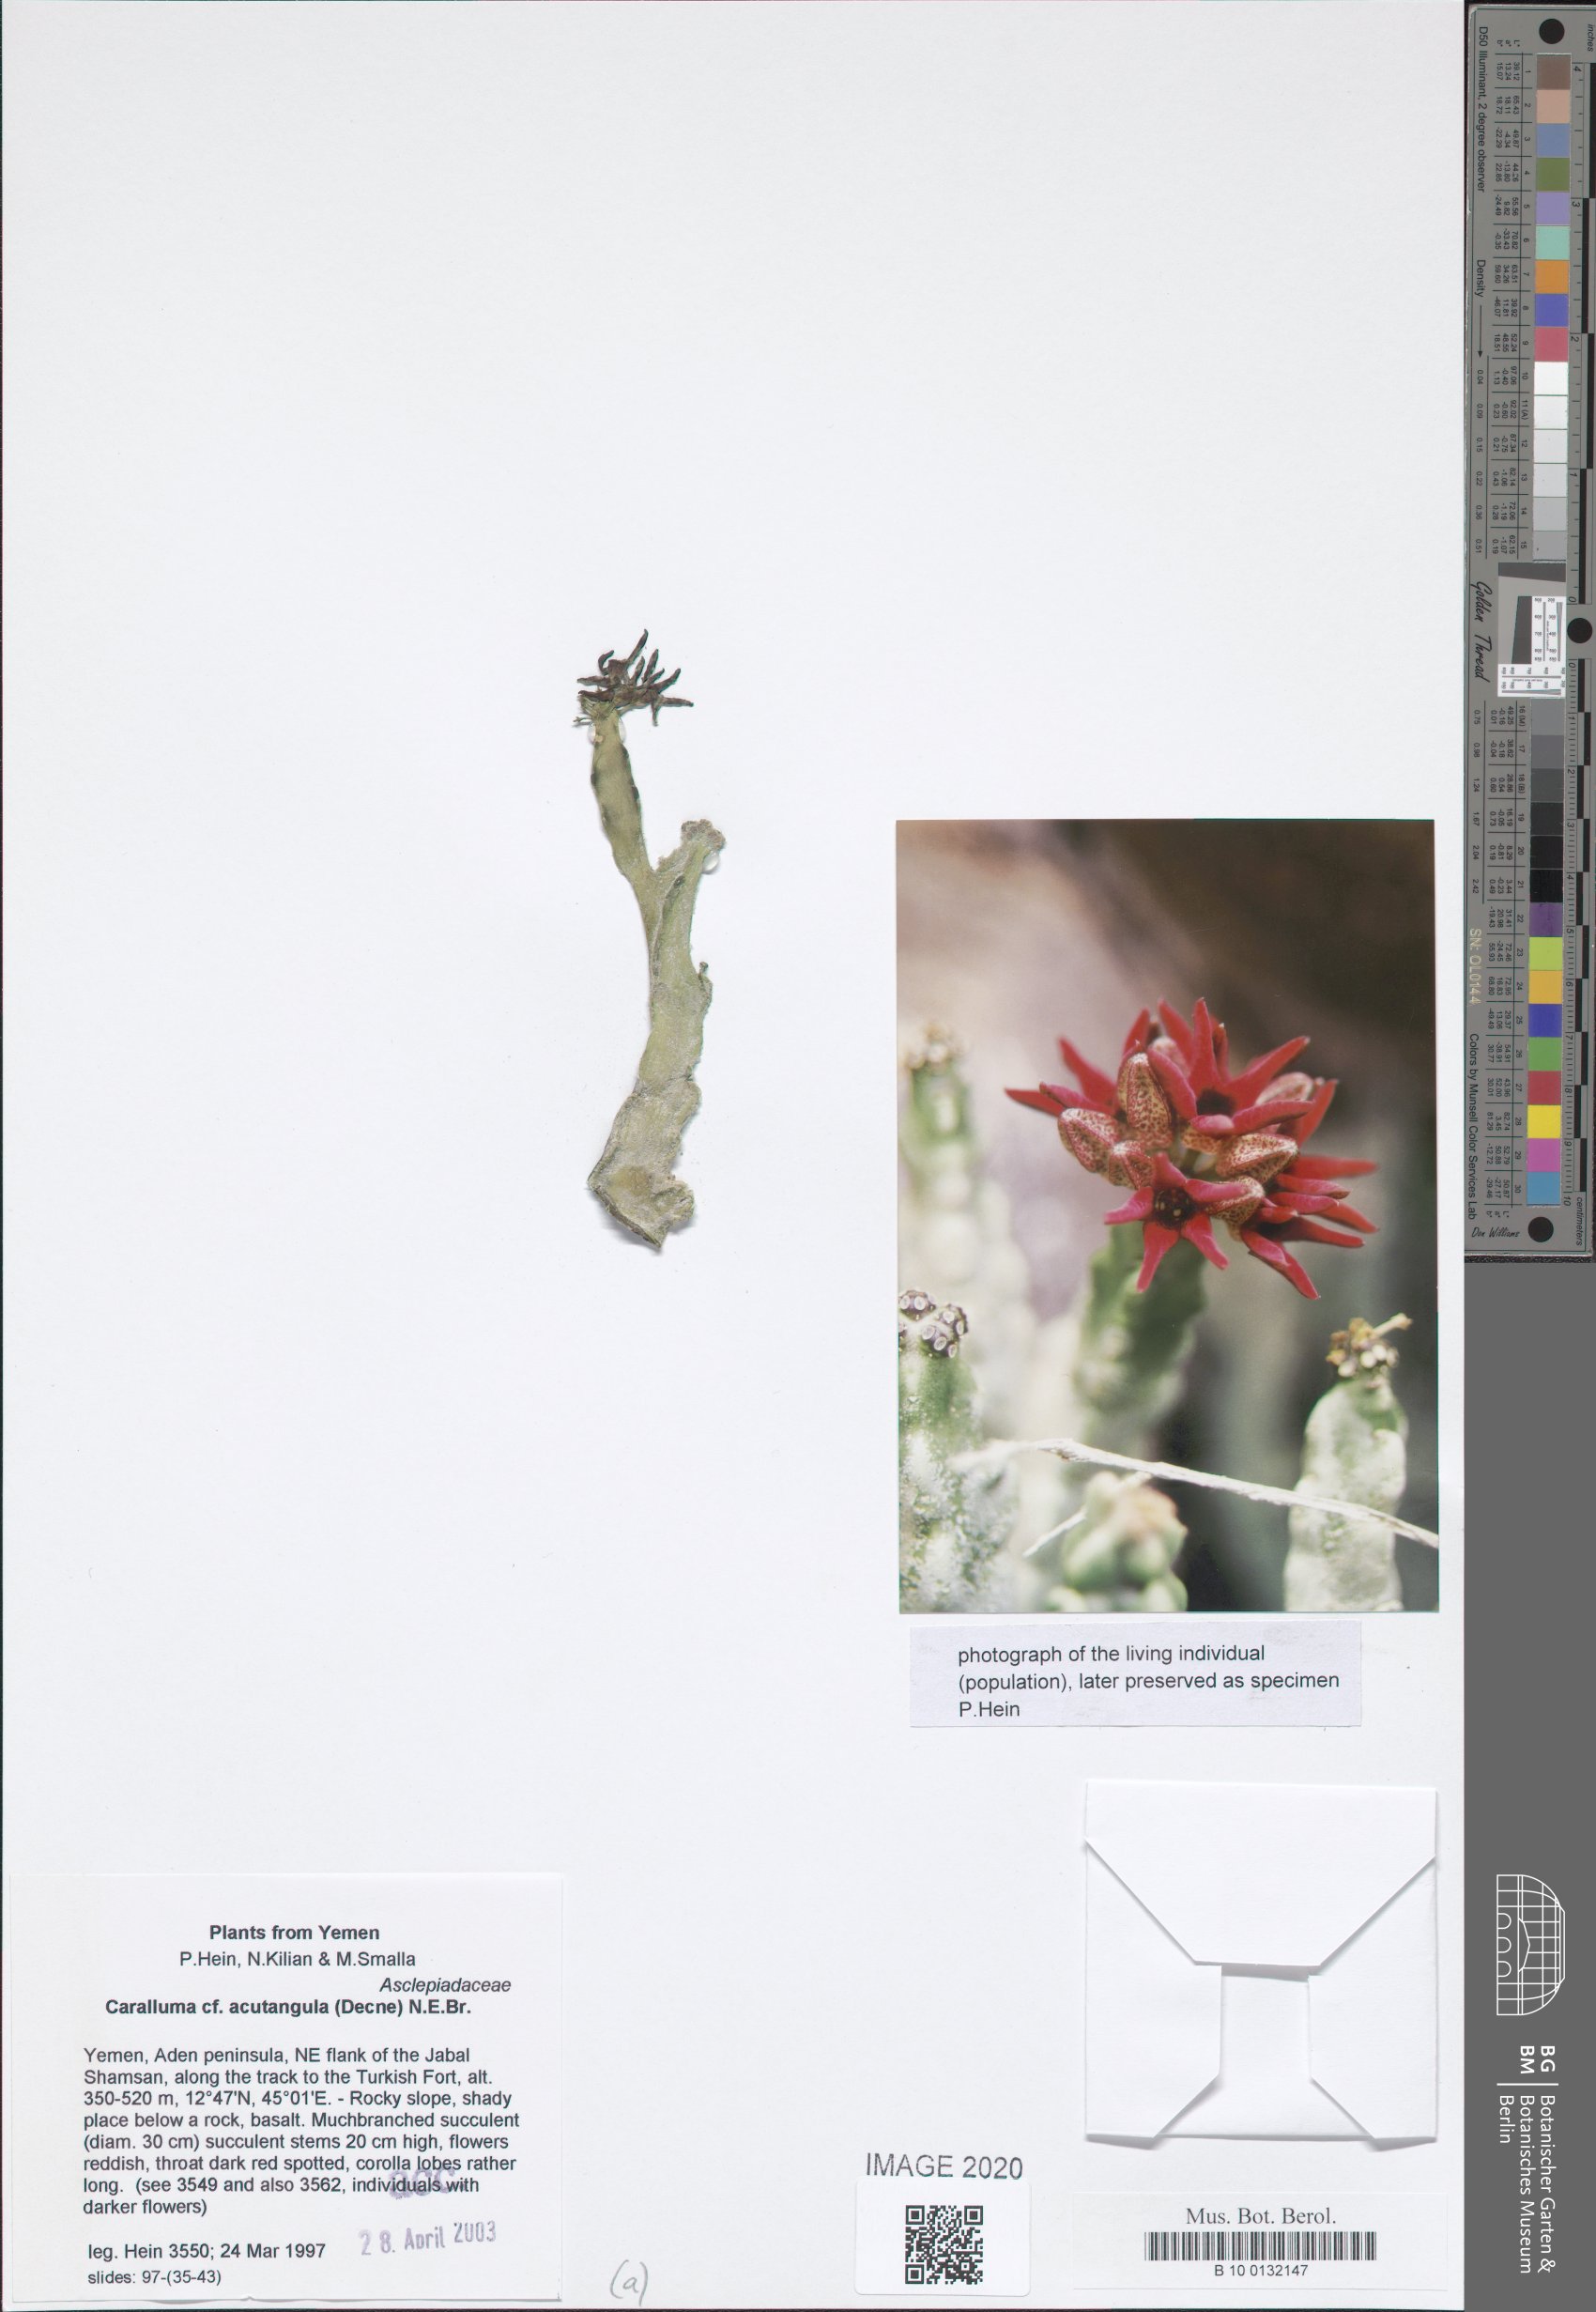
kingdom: Plantae
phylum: Tracheophyta
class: Magnoliopsida
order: Gentianales
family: Apocynaceae
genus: Ceropegia
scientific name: Ceropegia adenensis
